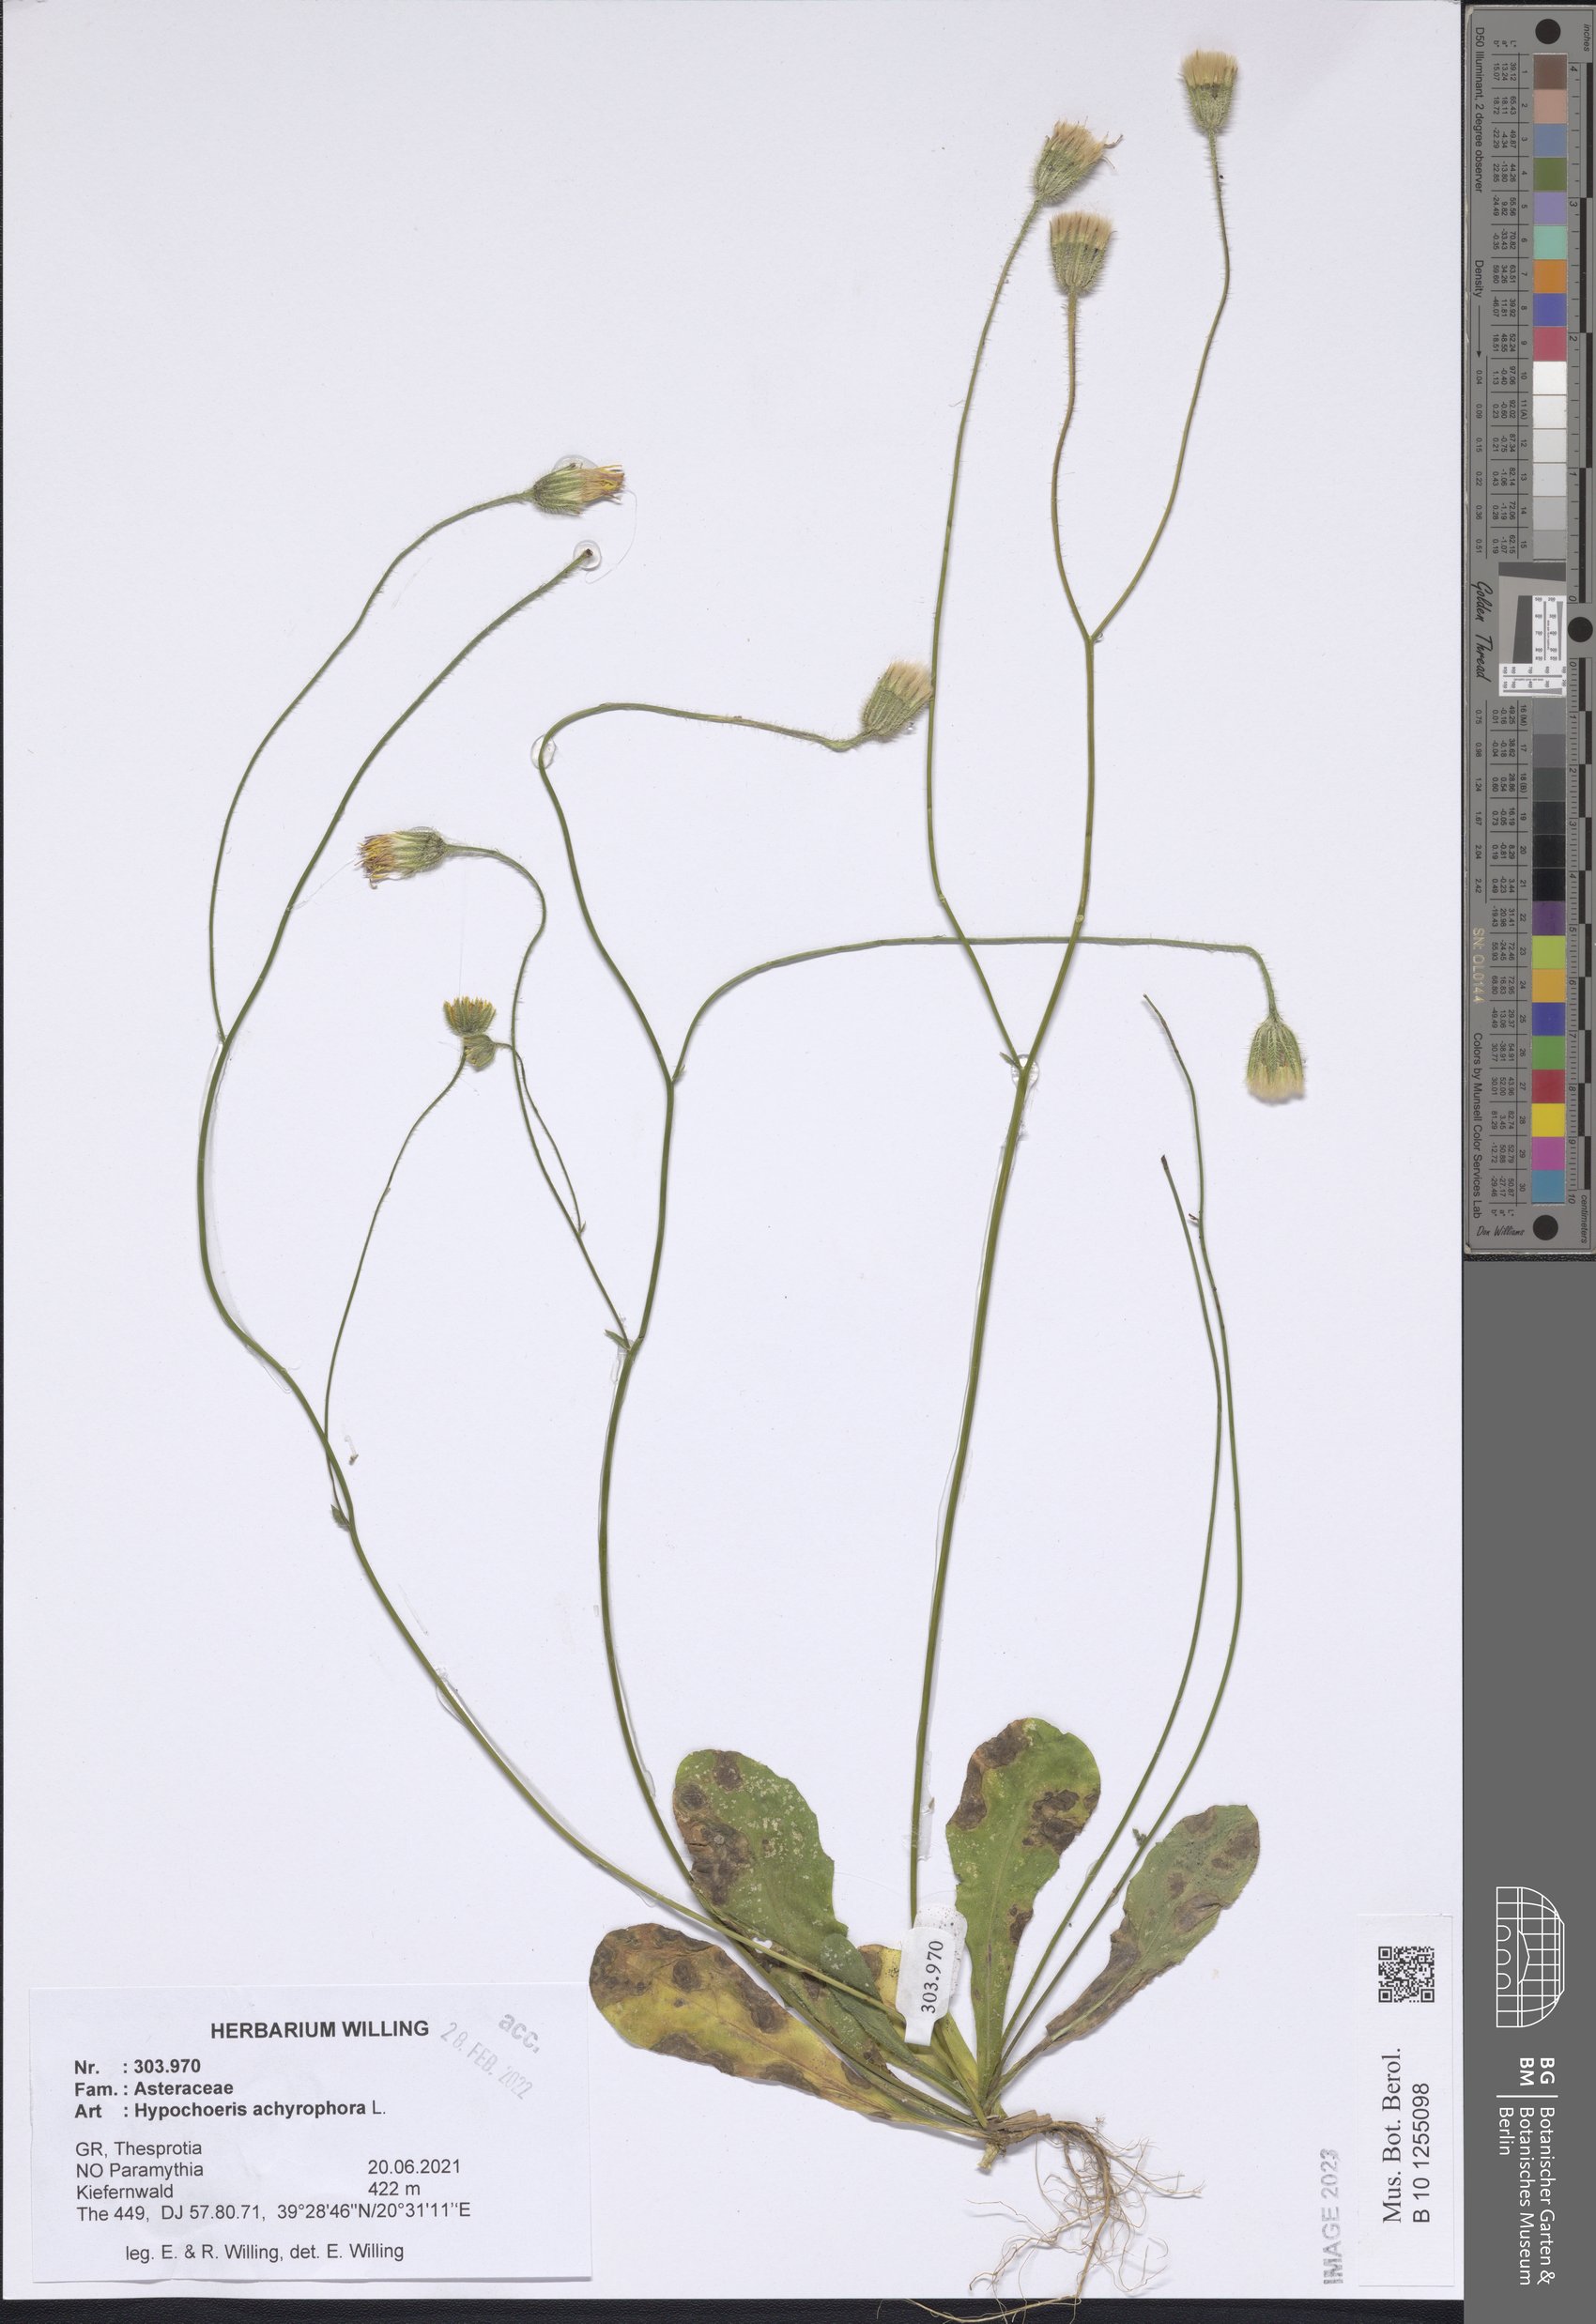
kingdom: Plantae
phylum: Tracheophyta
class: Magnoliopsida
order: Asterales
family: Asteraceae
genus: Achyrophorus
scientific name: Achyrophorus valdesii
